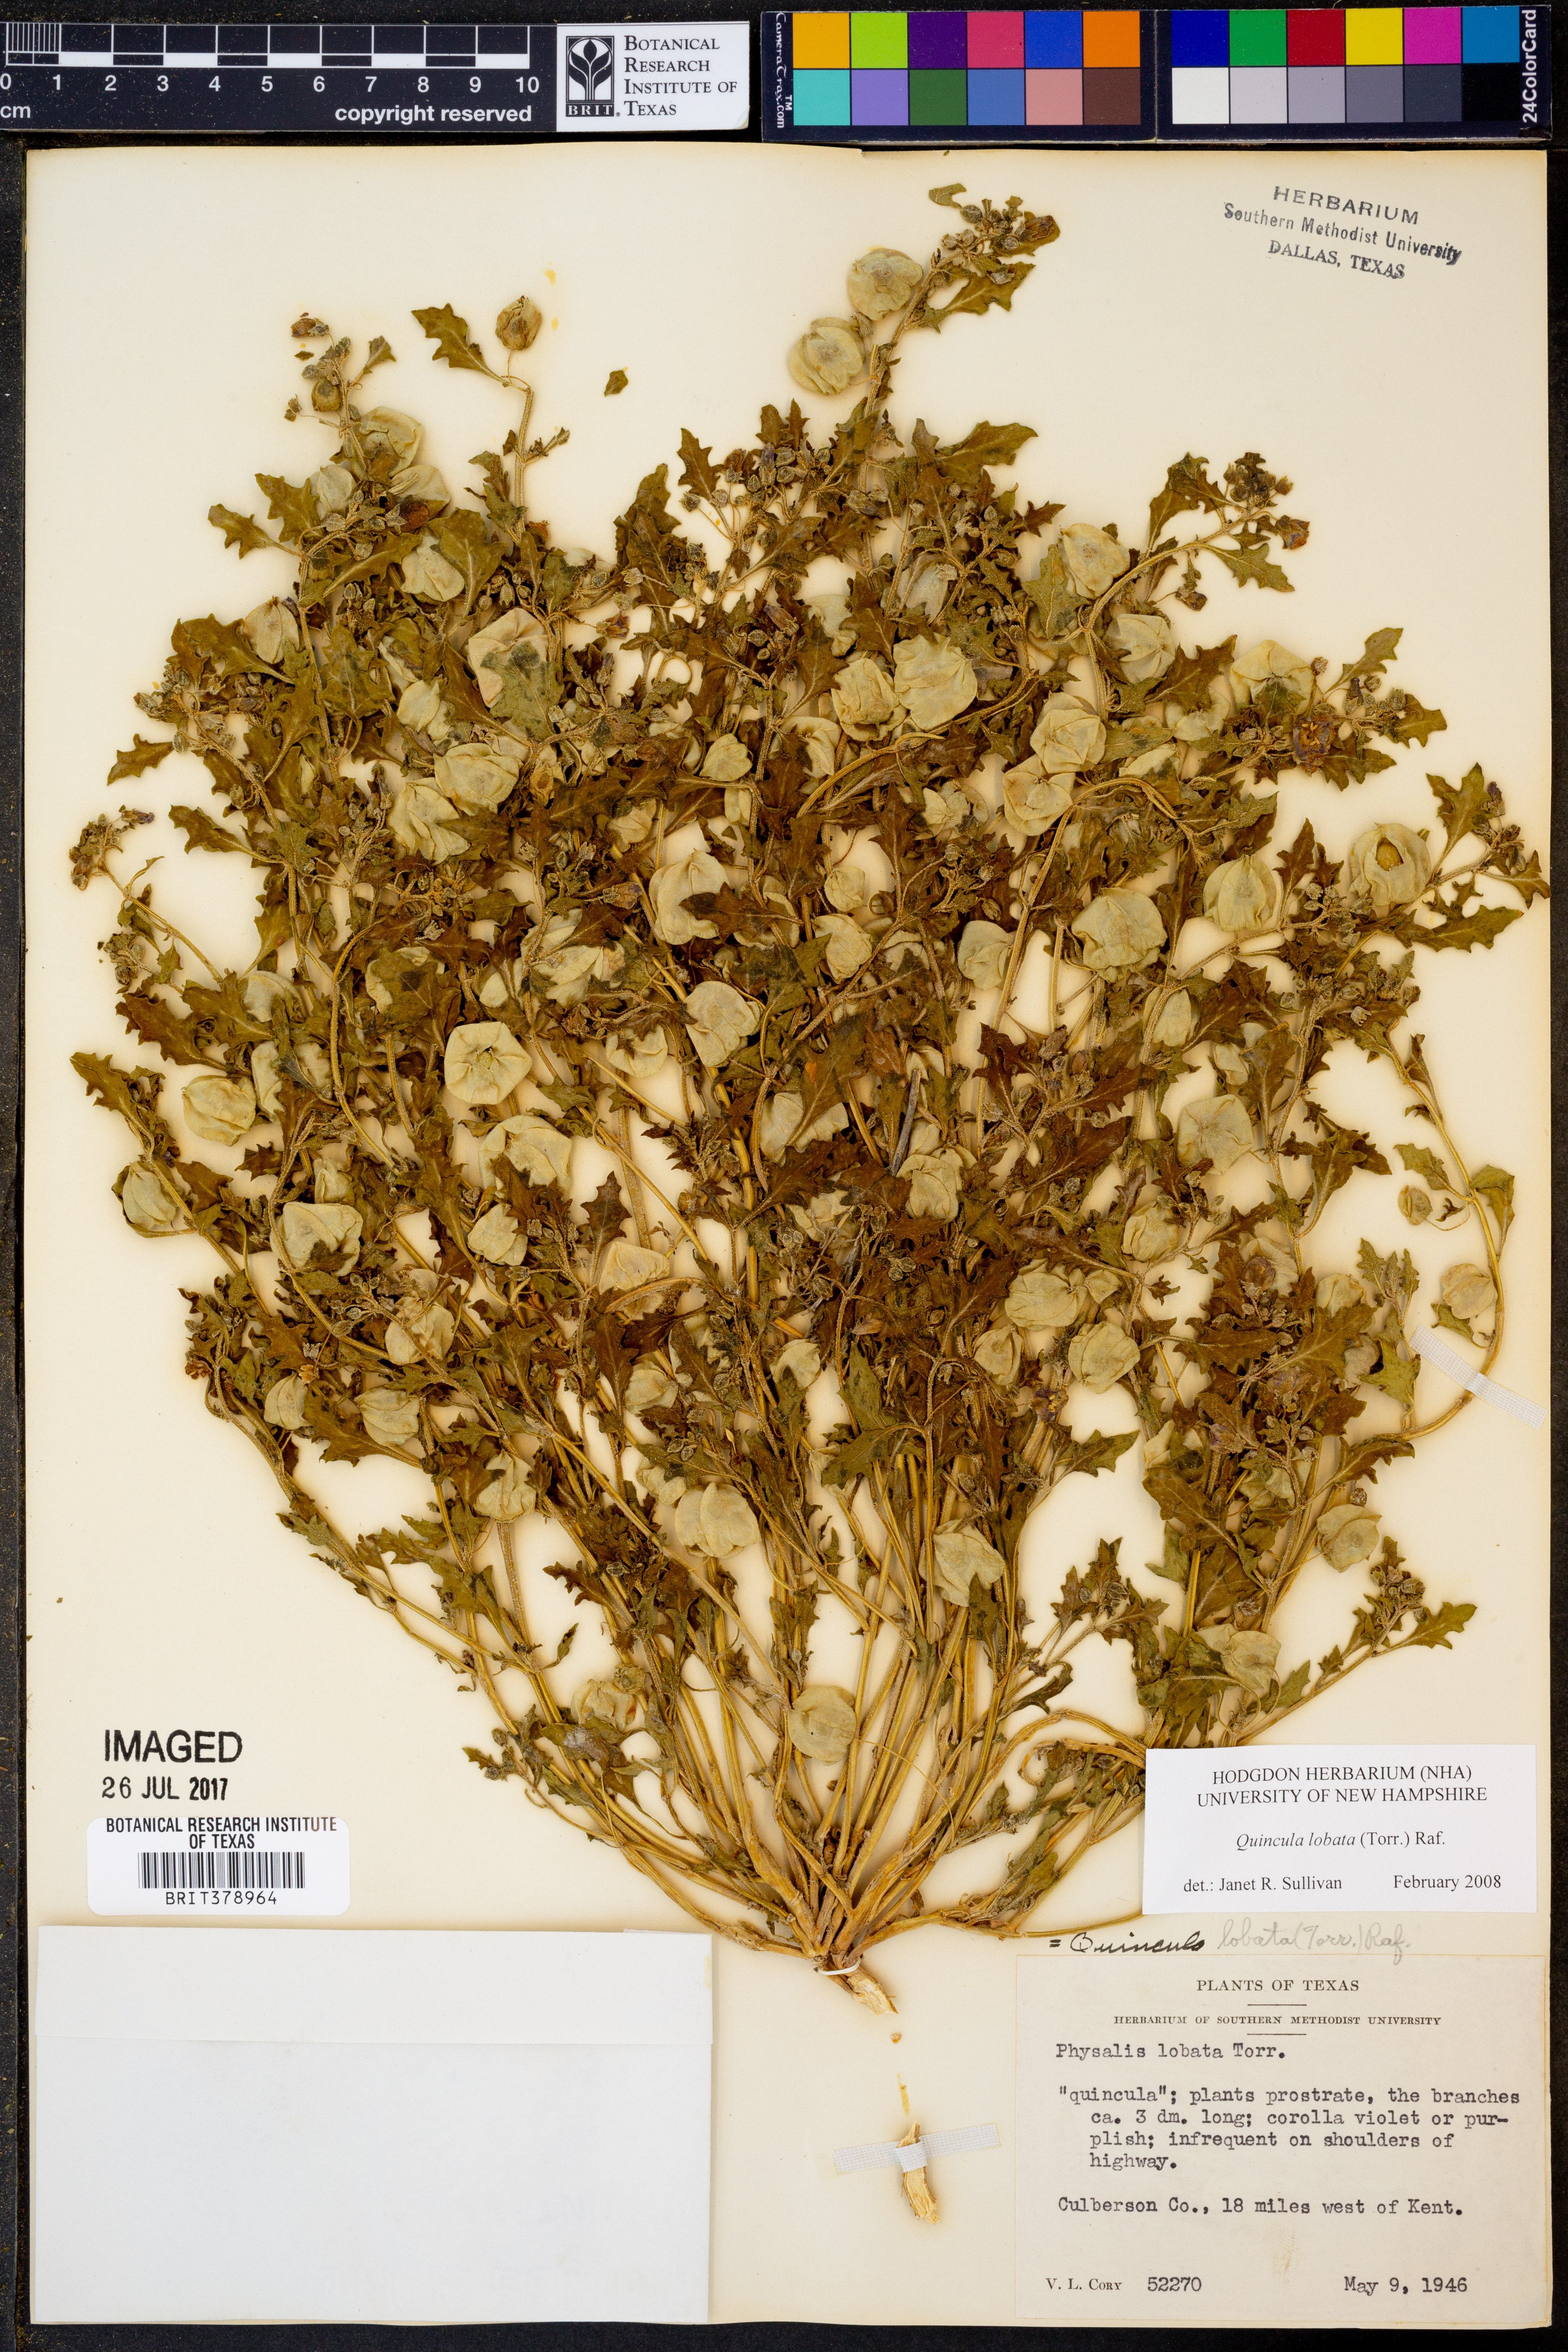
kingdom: Plantae
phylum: Tracheophyta
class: Magnoliopsida
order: Solanales
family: Solanaceae
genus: Quincula
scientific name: Quincula lobata
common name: Purple-ground-cherry
